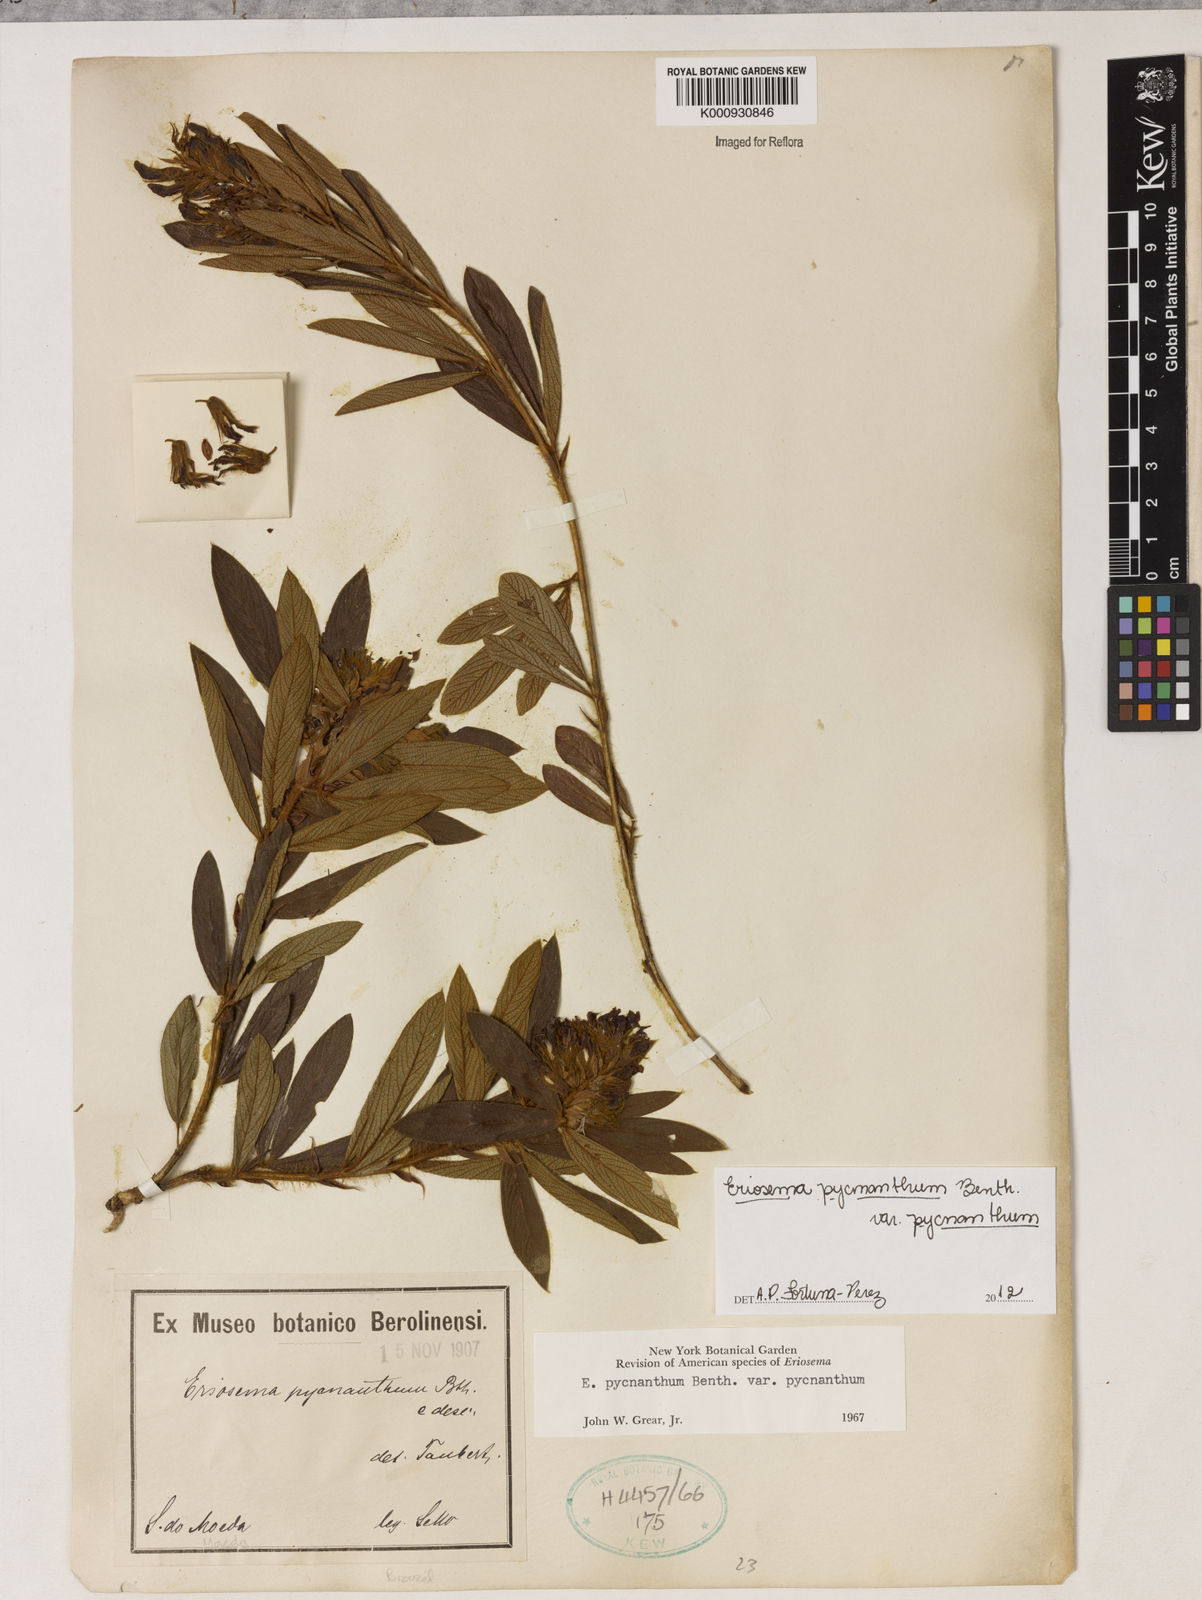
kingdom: Plantae
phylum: Tracheophyta
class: Magnoliopsida
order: Fabales
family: Fabaceae
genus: Eriosema
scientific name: Eriosema pycnanthum
